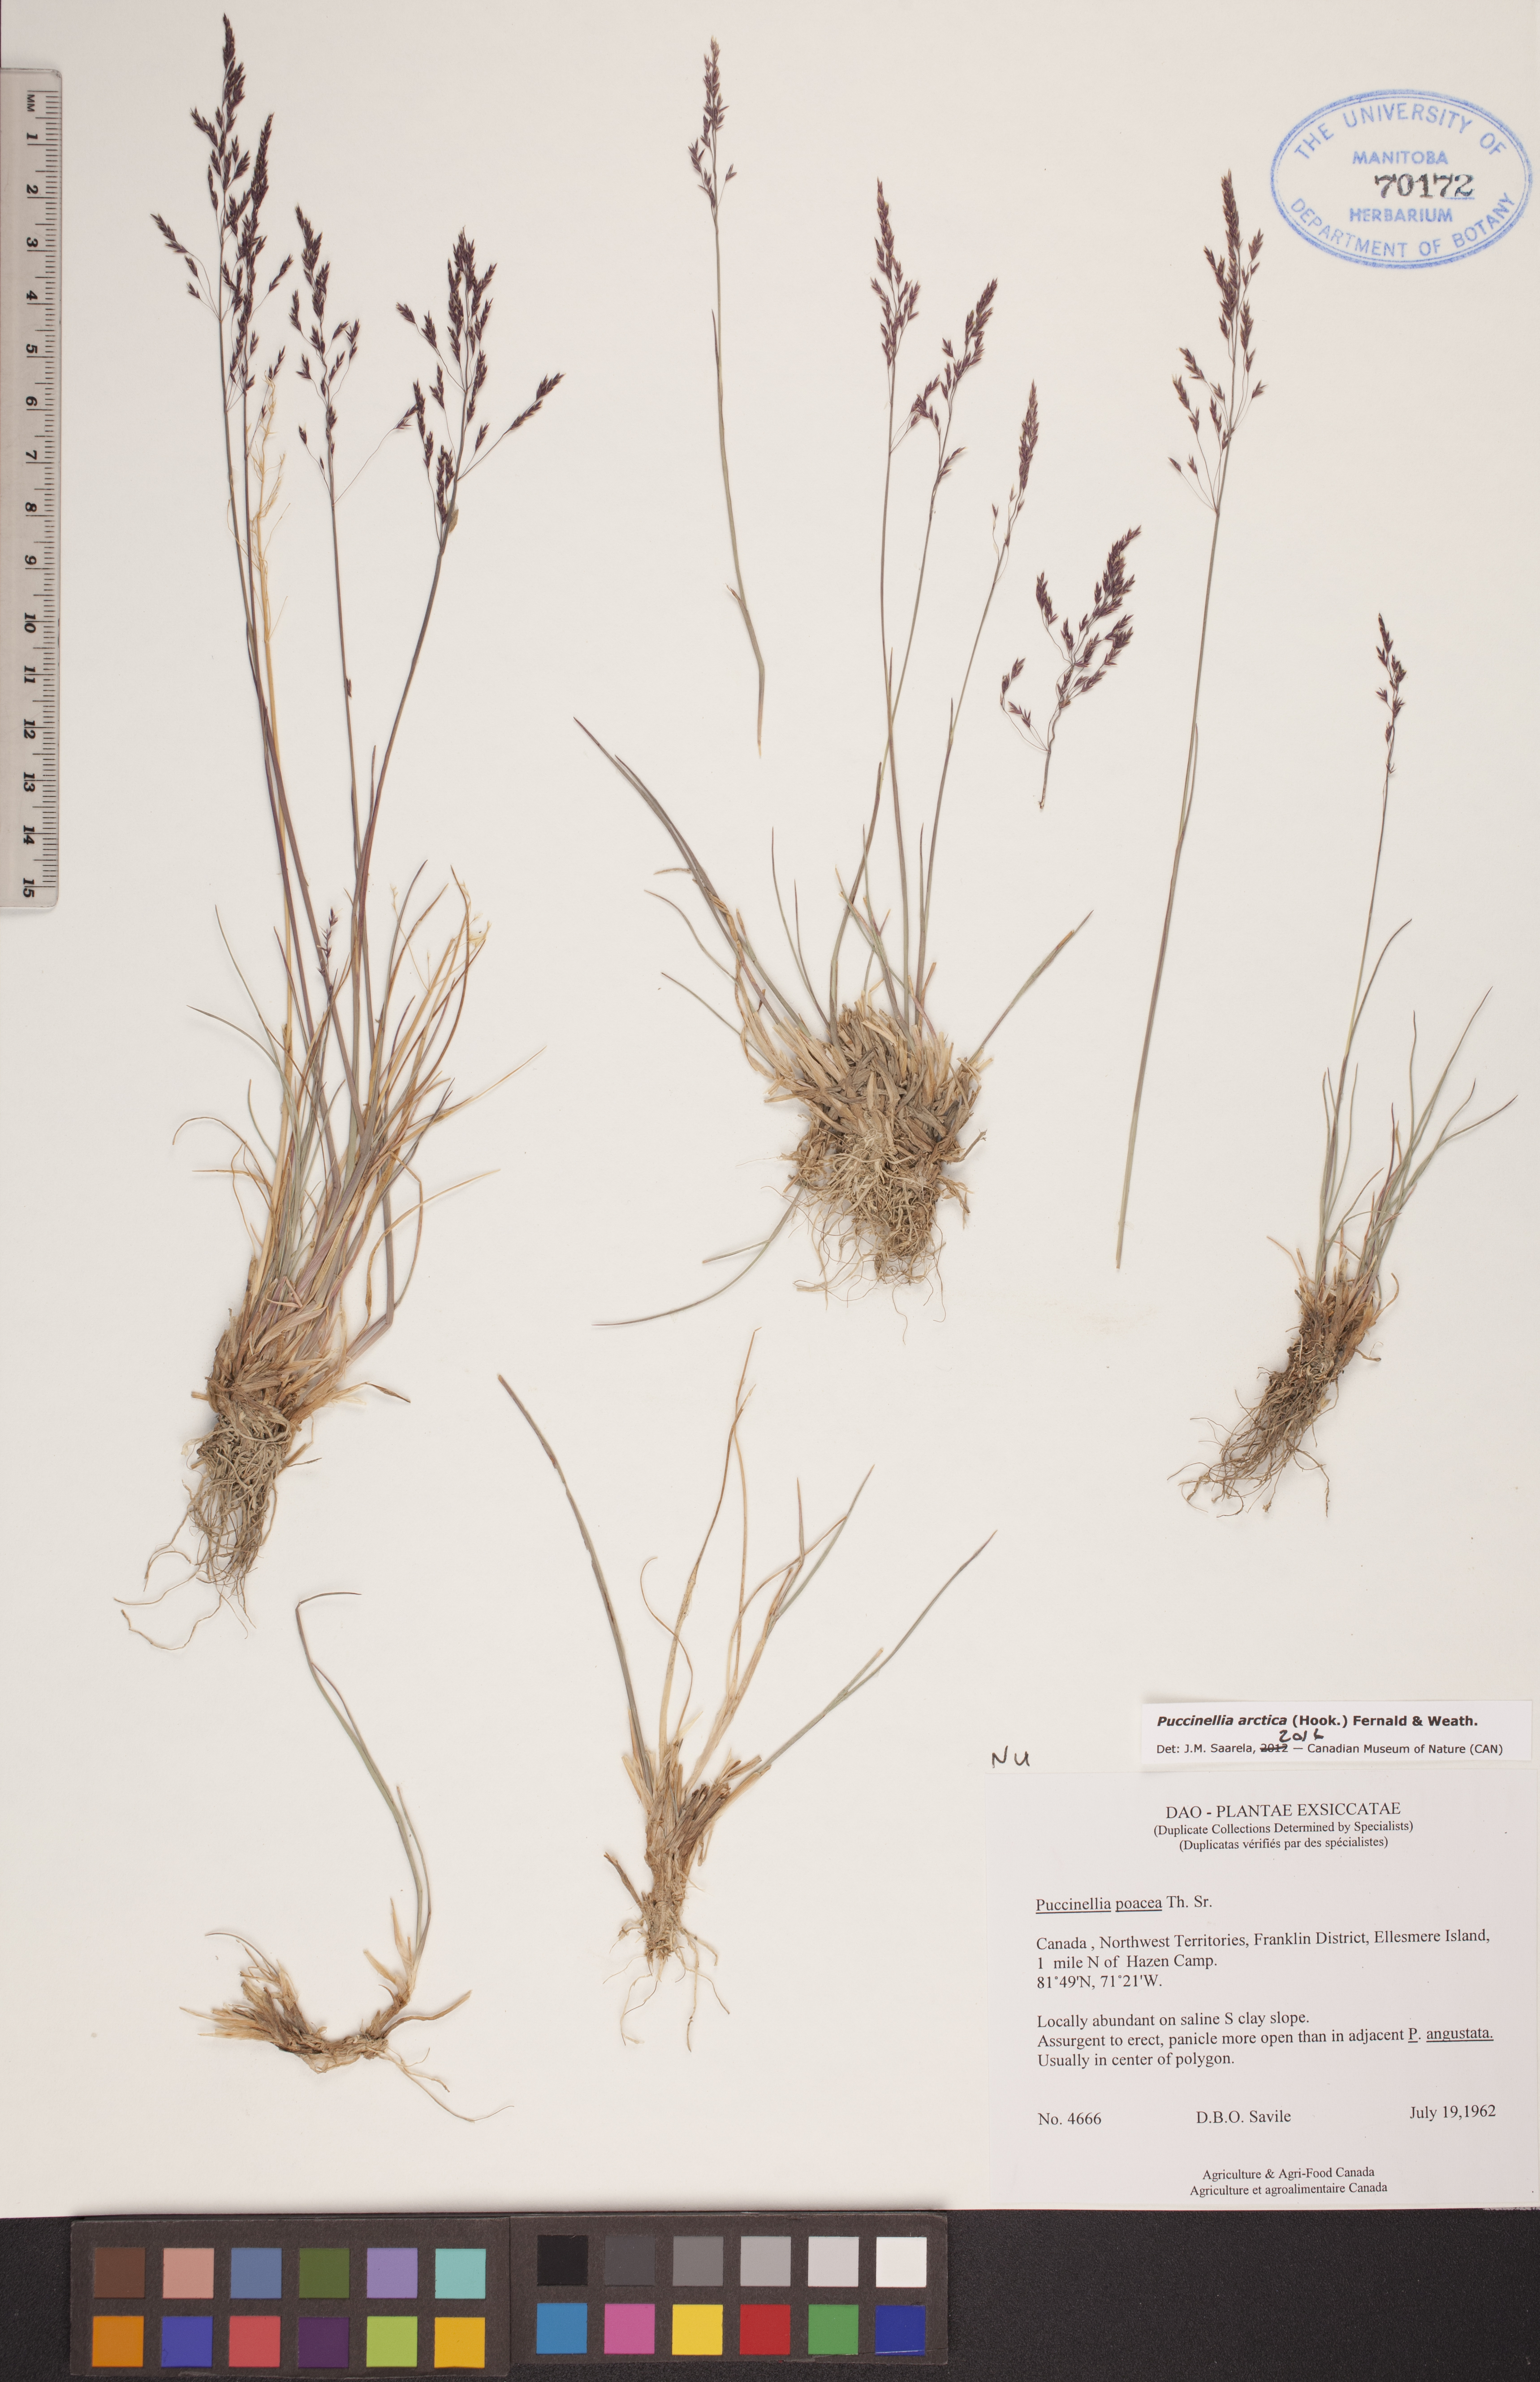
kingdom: Plantae
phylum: Tracheophyta
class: Liliopsida
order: Poales
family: Poaceae
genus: Puccinellia
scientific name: Puccinellia arctica
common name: Arctic alkali grass
